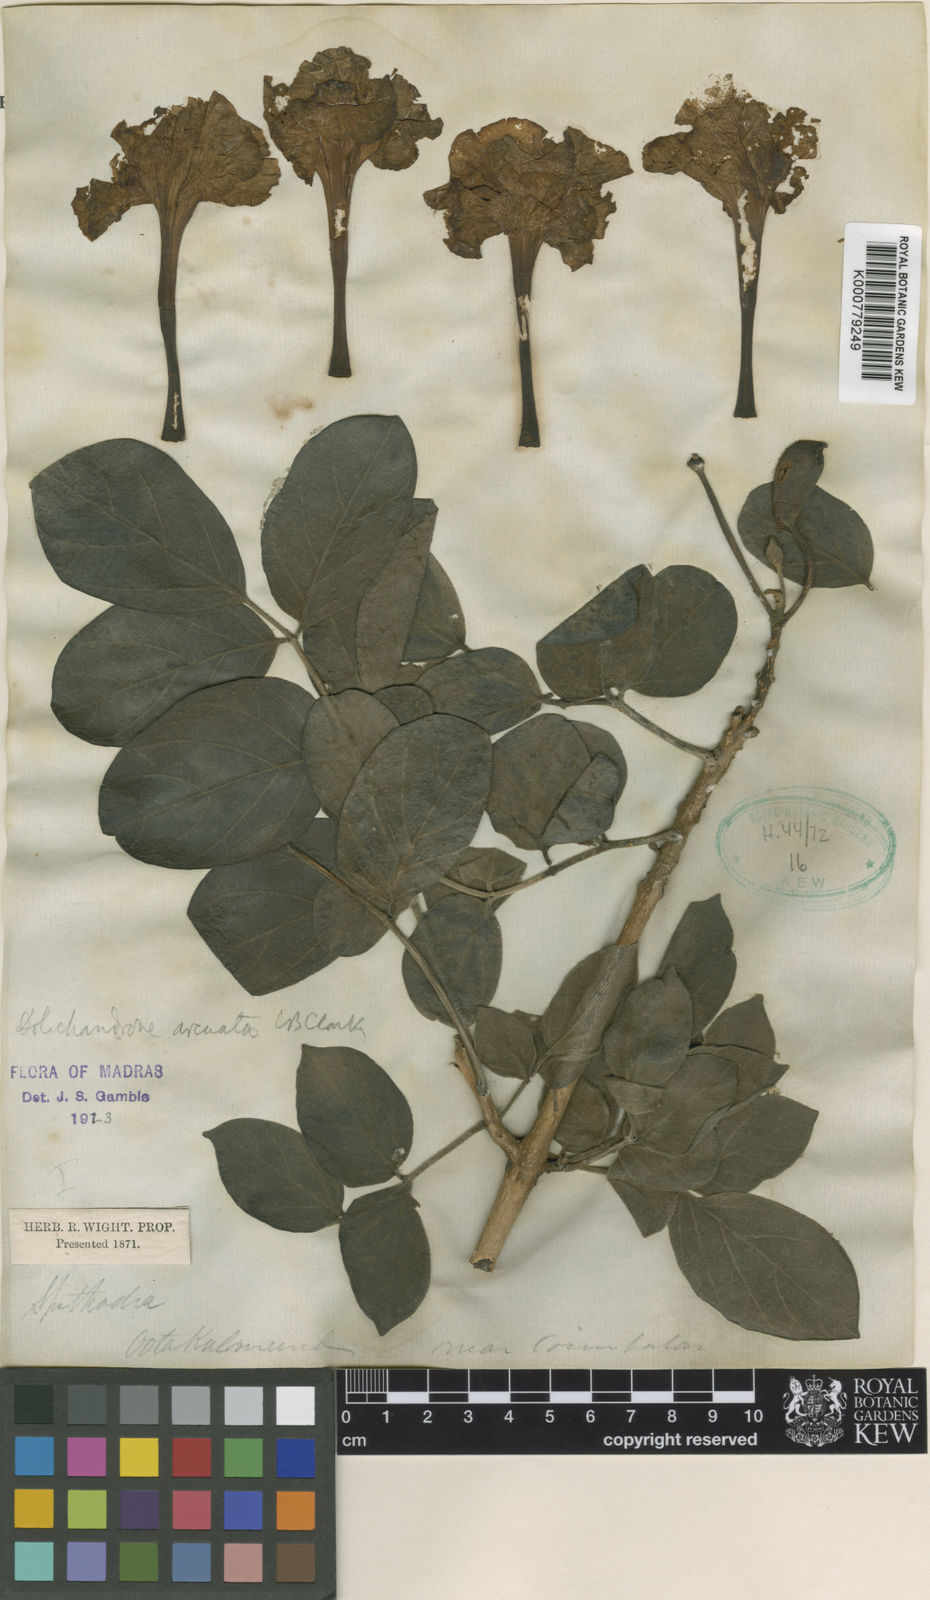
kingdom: Plantae
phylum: Tracheophyta
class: Magnoliopsida
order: Lamiales
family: Bignoniaceae
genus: Dolichandrone
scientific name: Dolichandrone arcuata
